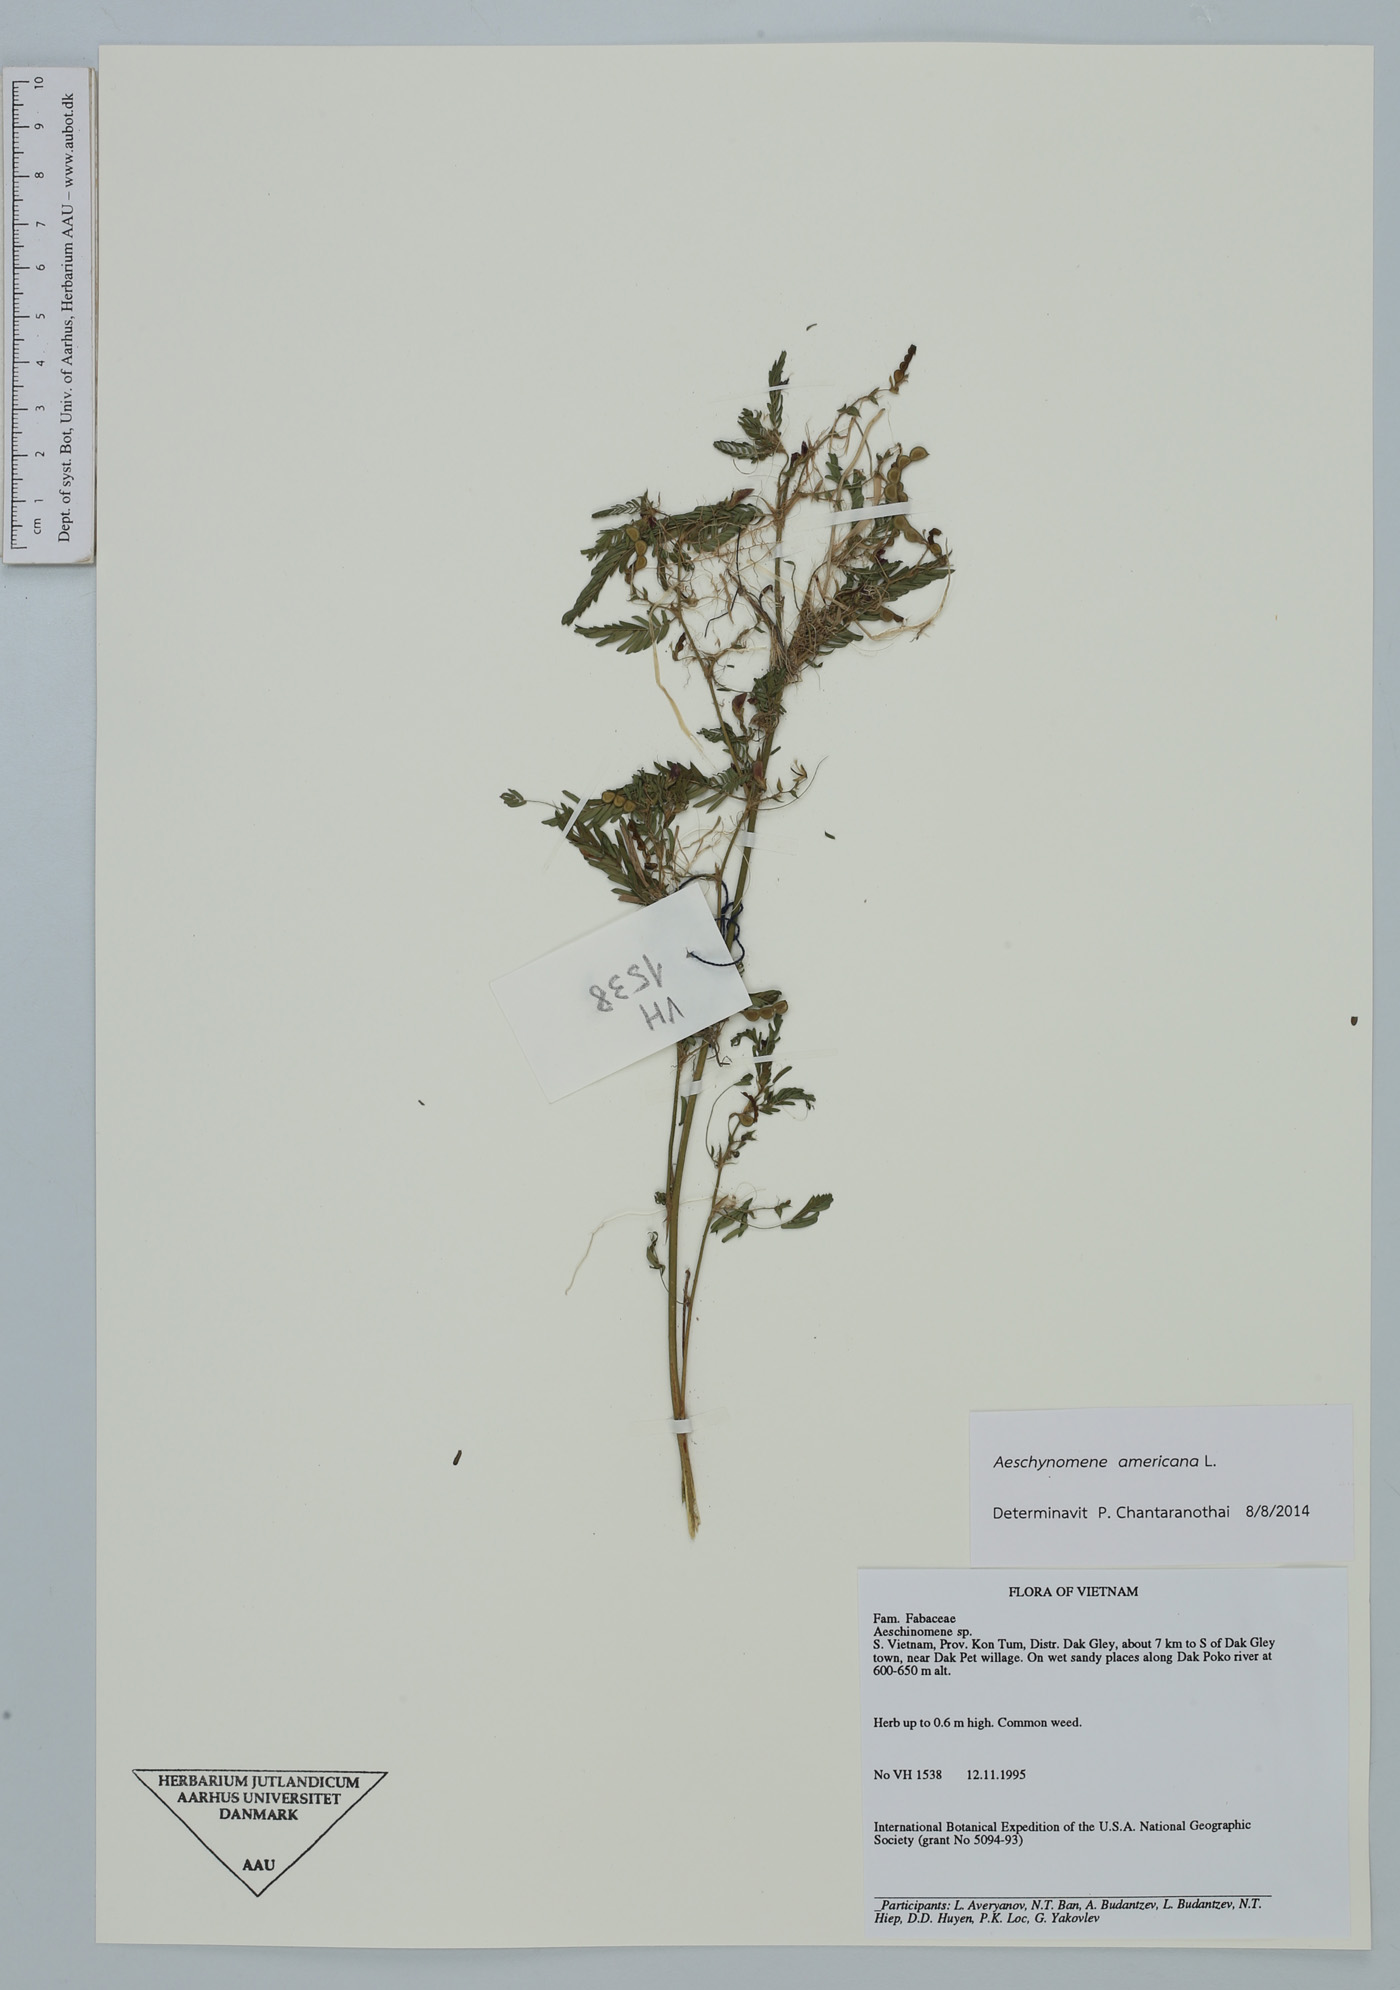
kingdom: Plantae
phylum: Tracheophyta
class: Magnoliopsida
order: Fabales
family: Fabaceae
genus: Aeschynomene
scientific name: Aeschynomene americana
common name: Joint-vetch
